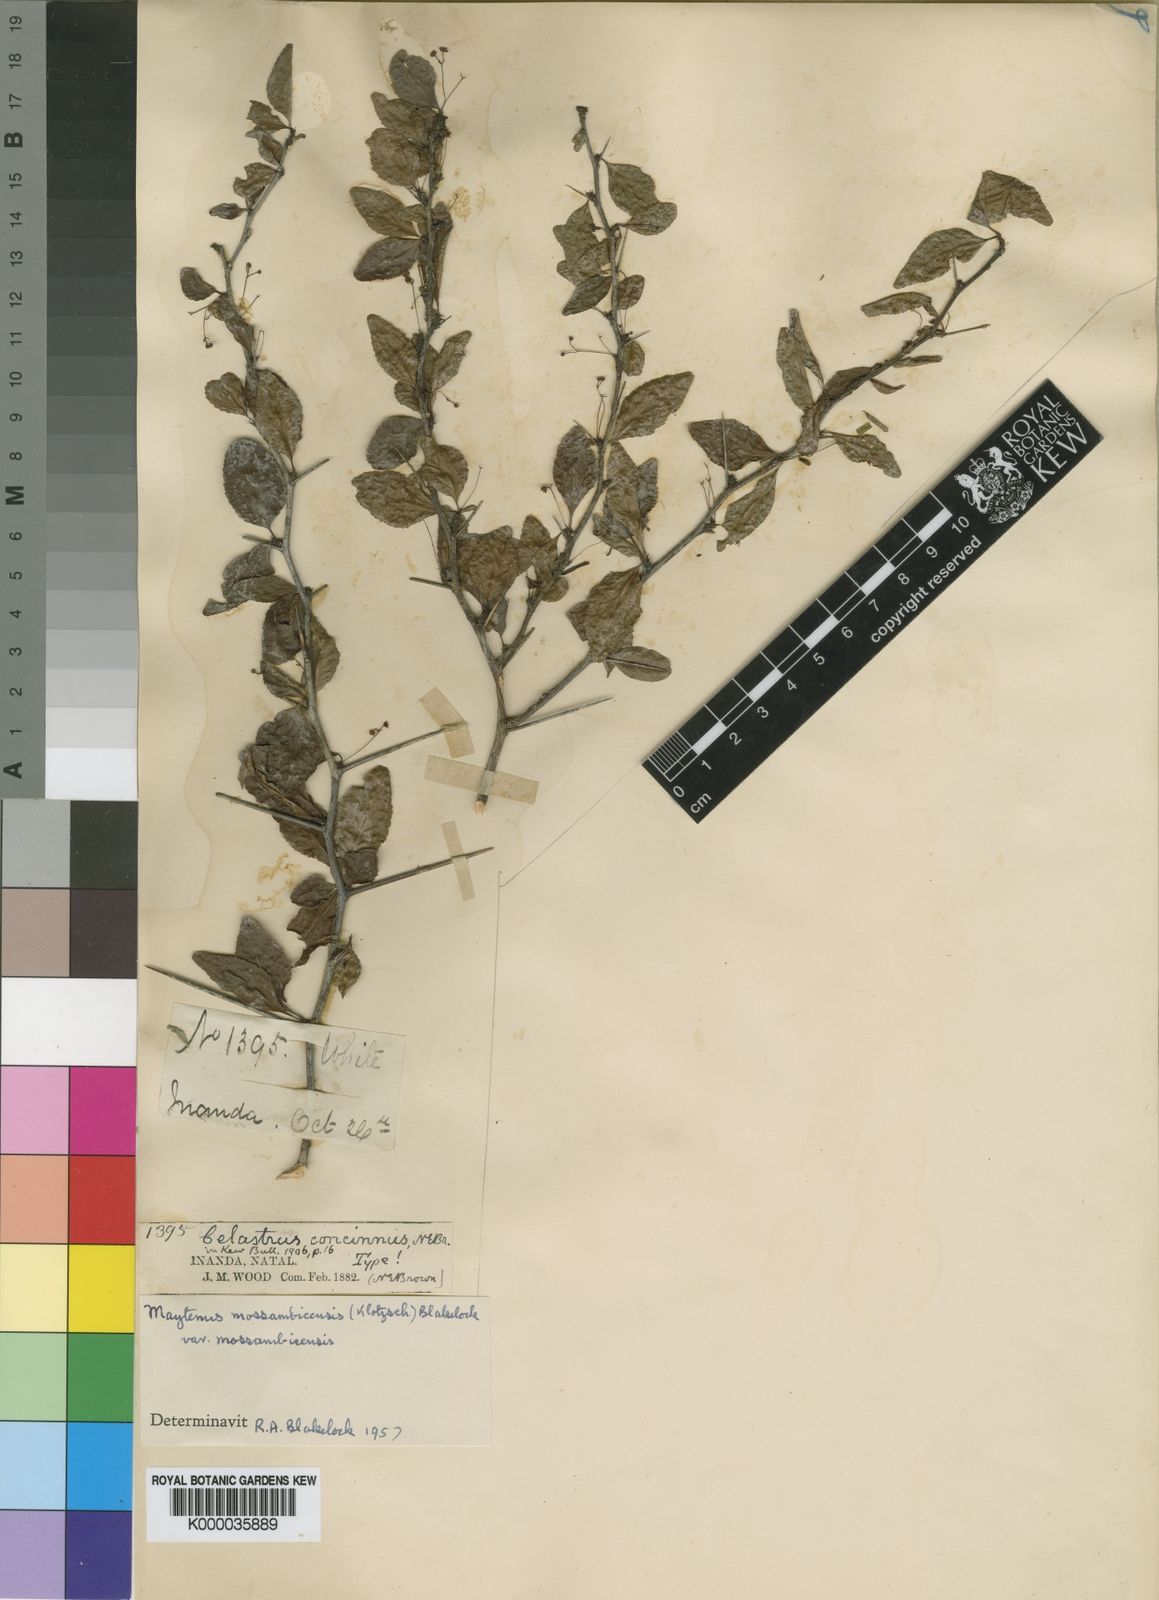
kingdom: Plantae
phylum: Tracheophyta
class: Magnoliopsida
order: Celastrales
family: Celastraceae
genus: Gymnosporia
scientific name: Gymnosporia mossambicensis
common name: Black forest spike-thorn
